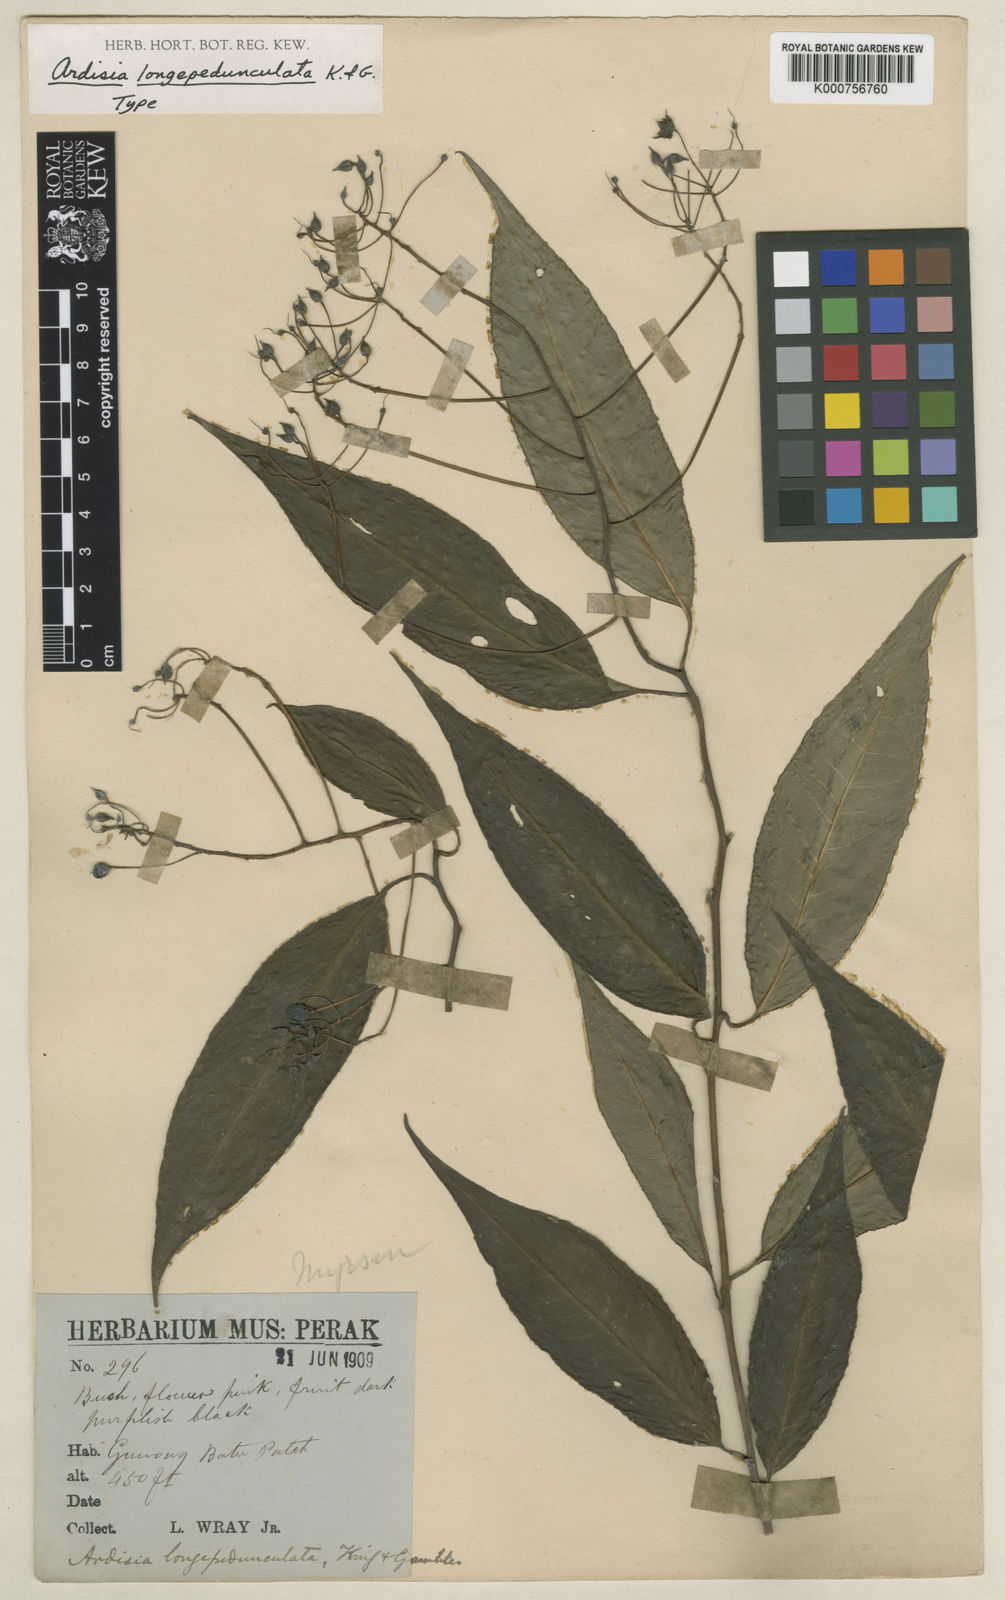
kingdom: Plantae
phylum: Tracheophyta
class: Magnoliopsida
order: Ericales
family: Primulaceae
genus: Ardisia
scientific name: Ardisia
